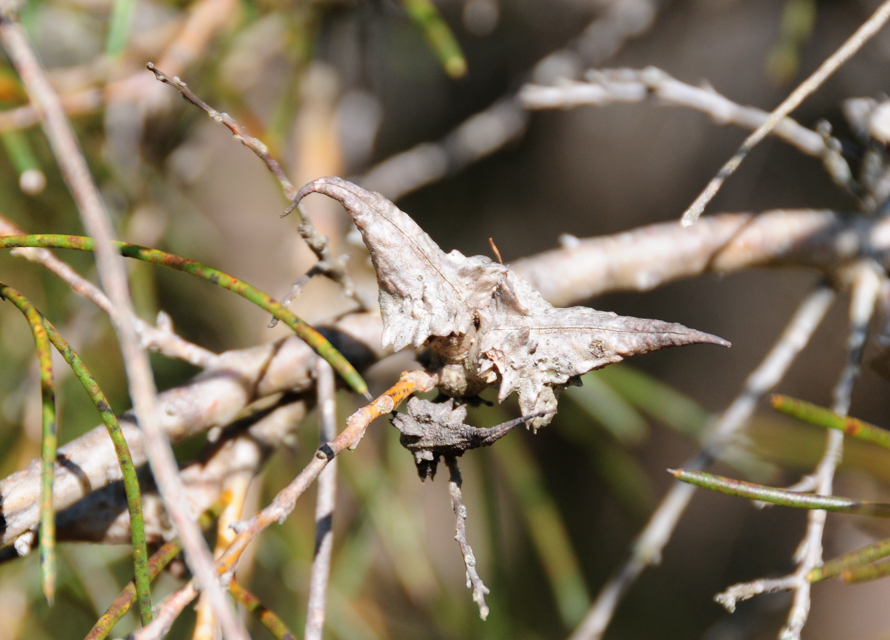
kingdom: Plantae
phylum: Tracheophyta
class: Magnoliopsida
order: Proteales
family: Proteaceae
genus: Hakea
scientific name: Hakea teretifolia
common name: Dagger hakea
